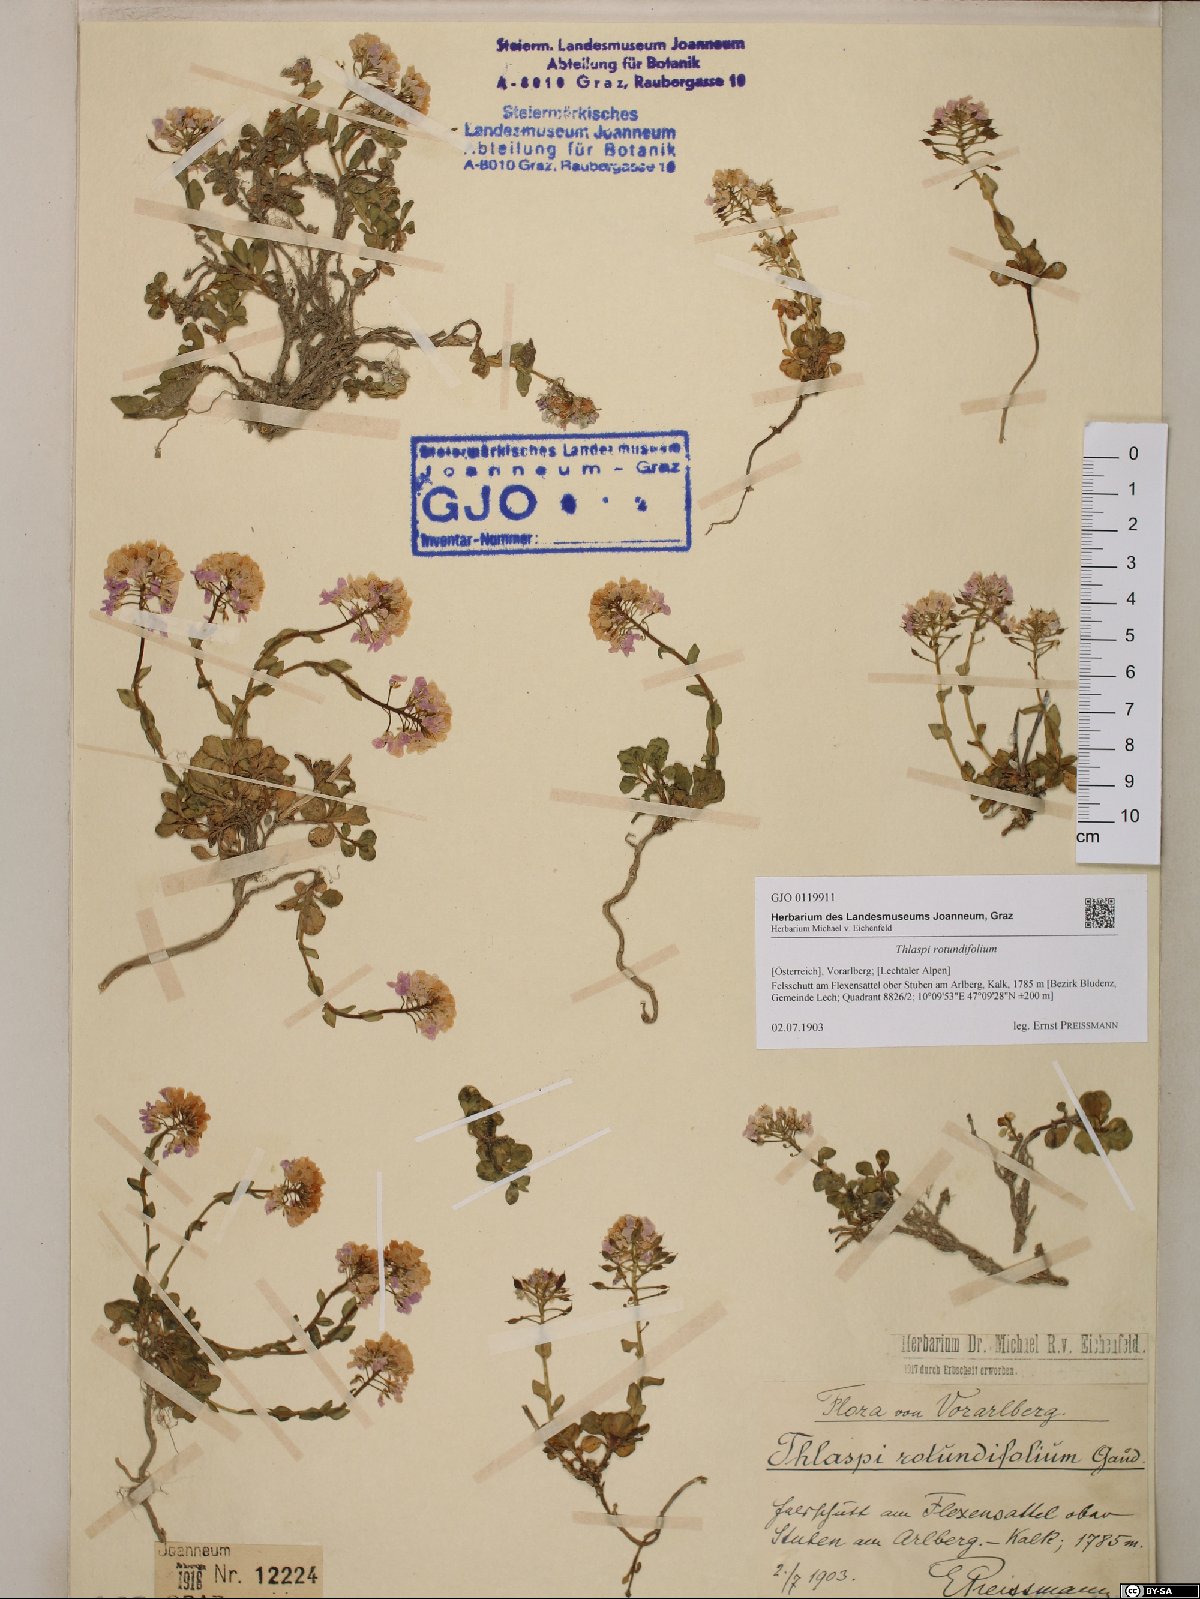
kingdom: Plantae
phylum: Tracheophyta
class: Magnoliopsida
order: Brassicales
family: Brassicaceae
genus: Noccaea
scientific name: Noccaea rotundifolia
